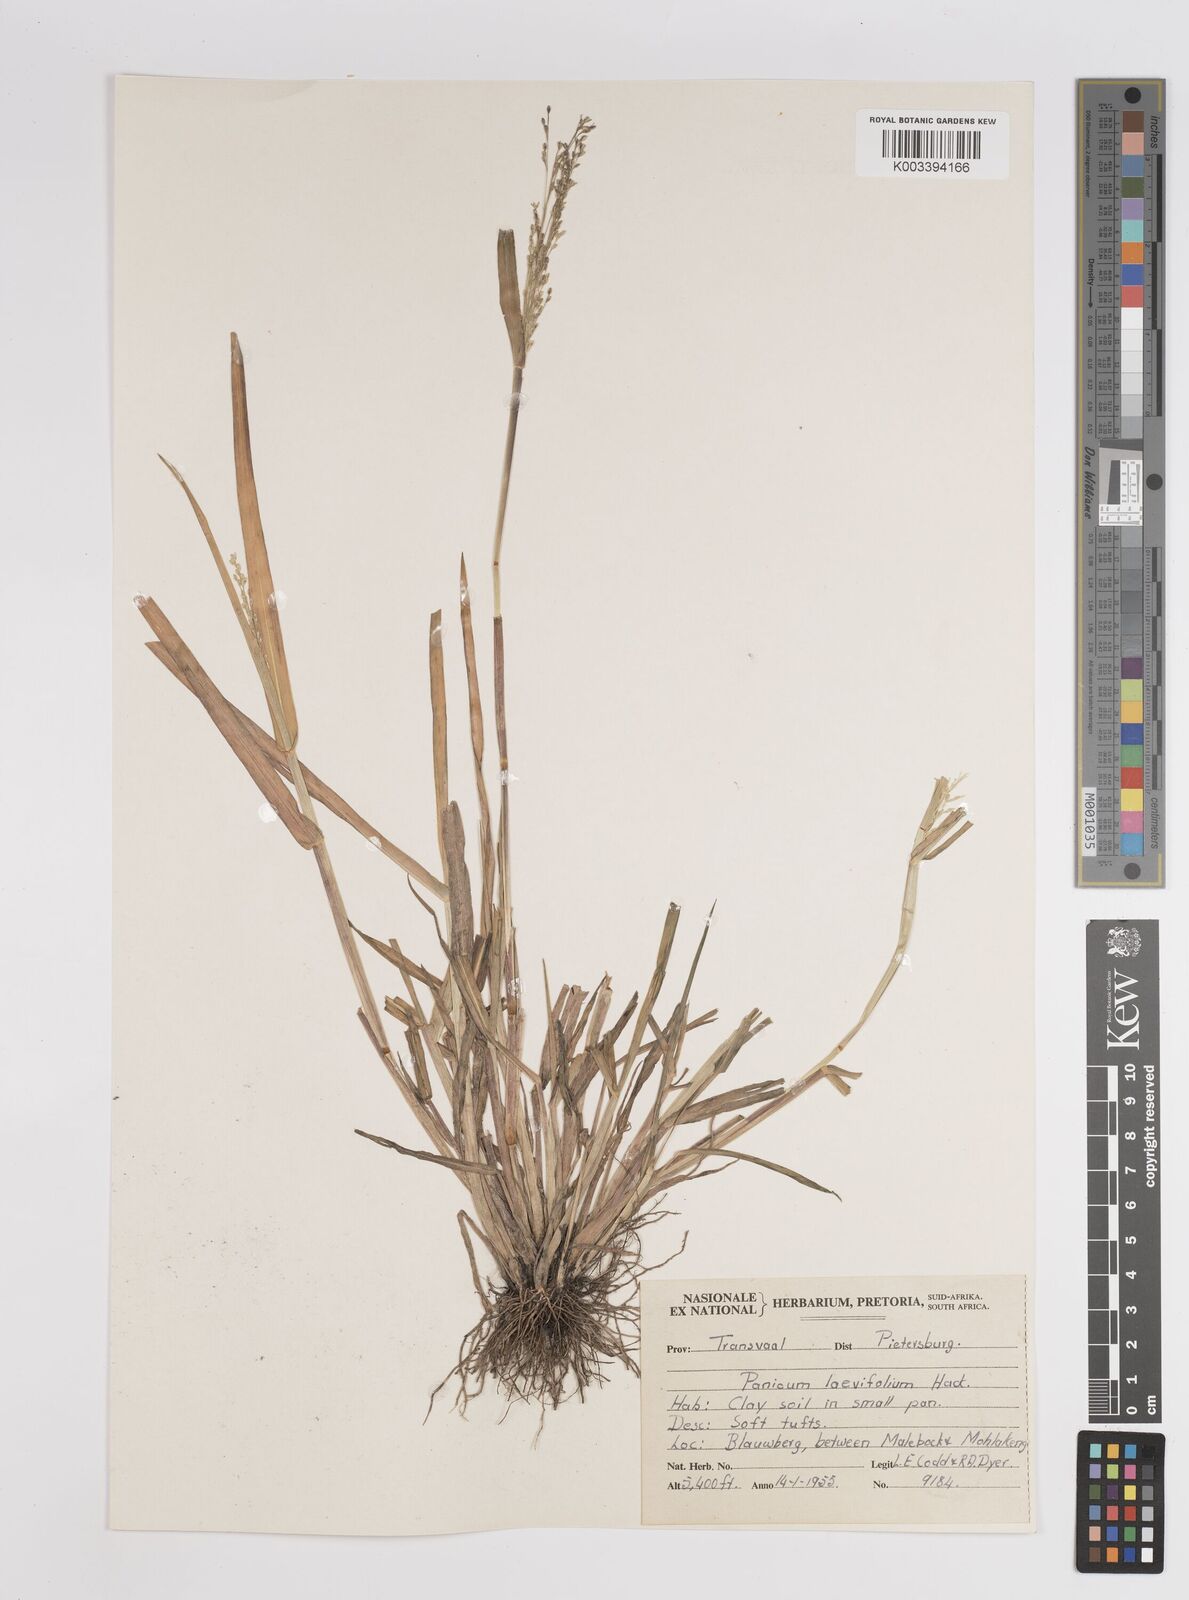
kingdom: Plantae
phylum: Tracheophyta
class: Liliopsida
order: Poales
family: Poaceae
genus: Panicum
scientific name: Panicum schinzii
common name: Sweet grass
